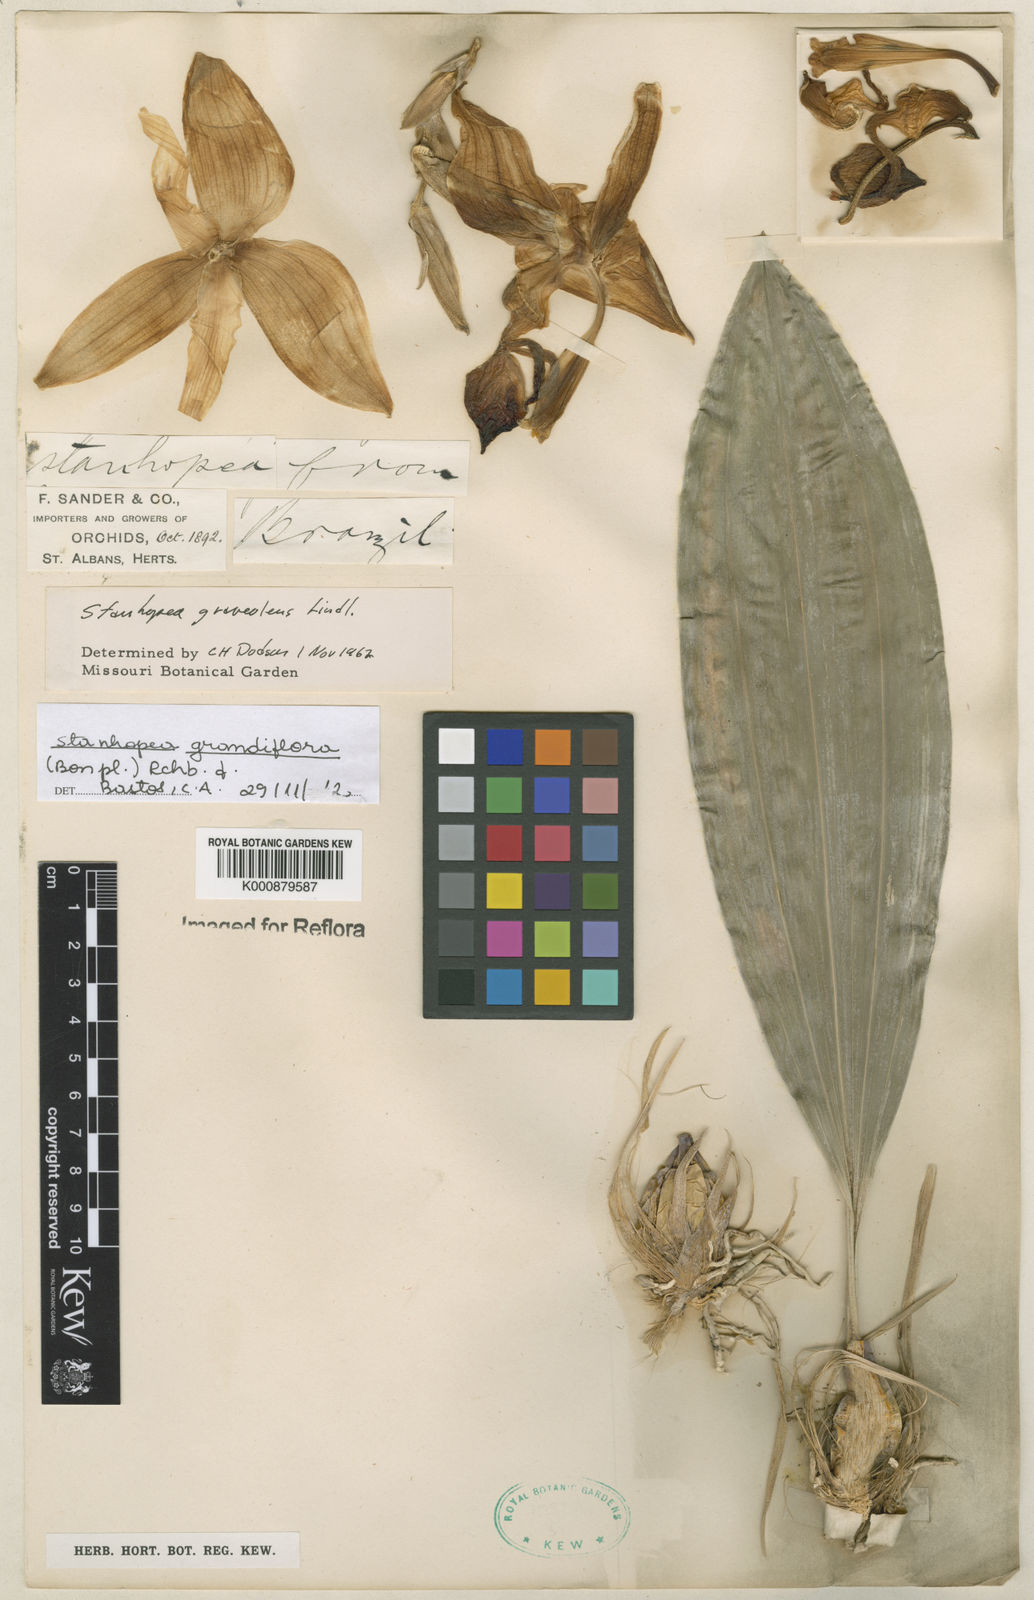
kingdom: Plantae
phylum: Tracheophyta
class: Liliopsida
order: Asparagales
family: Orchidaceae
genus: Stanhopea
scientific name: Stanhopea grandiflora
